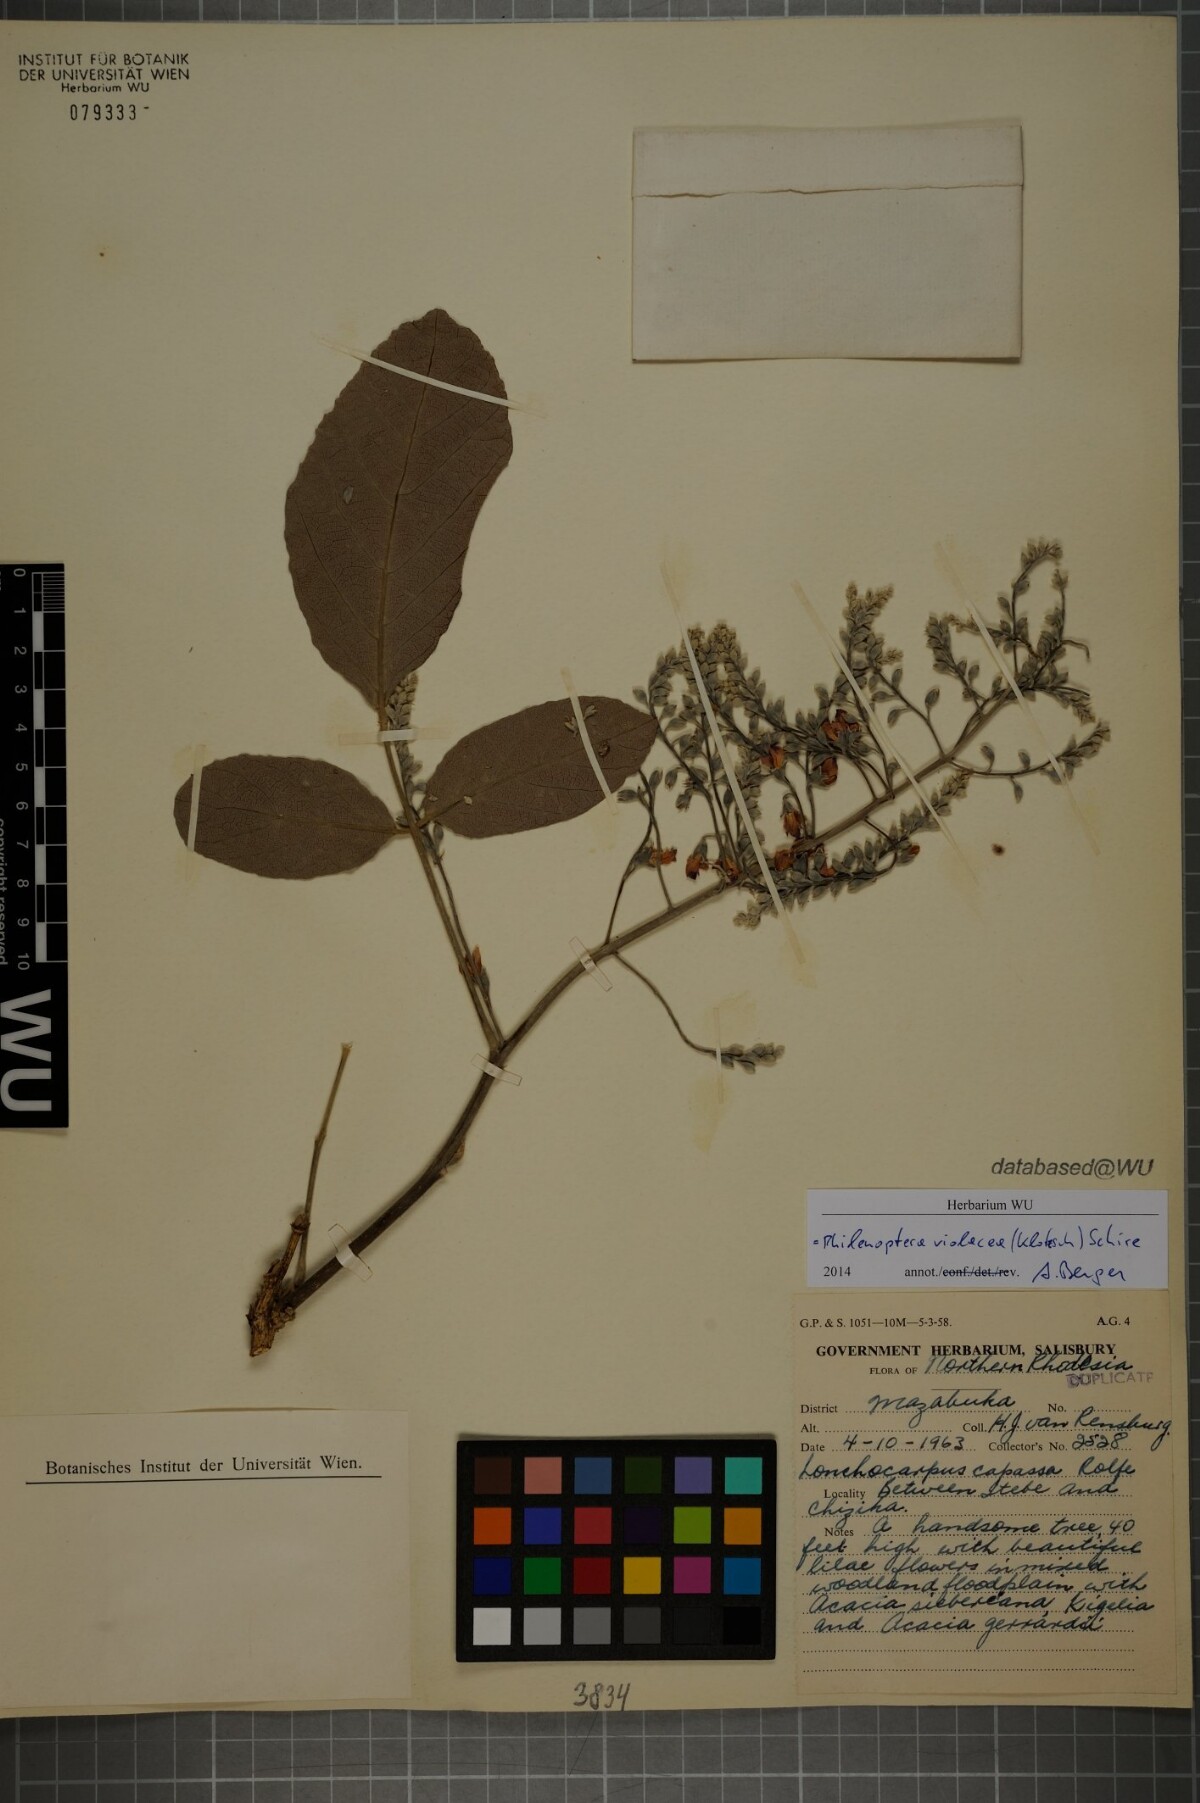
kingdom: Plantae
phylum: Tracheophyta
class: Magnoliopsida
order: Fabales
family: Fabaceae
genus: Philenoptera
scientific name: Philenoptera violacea
